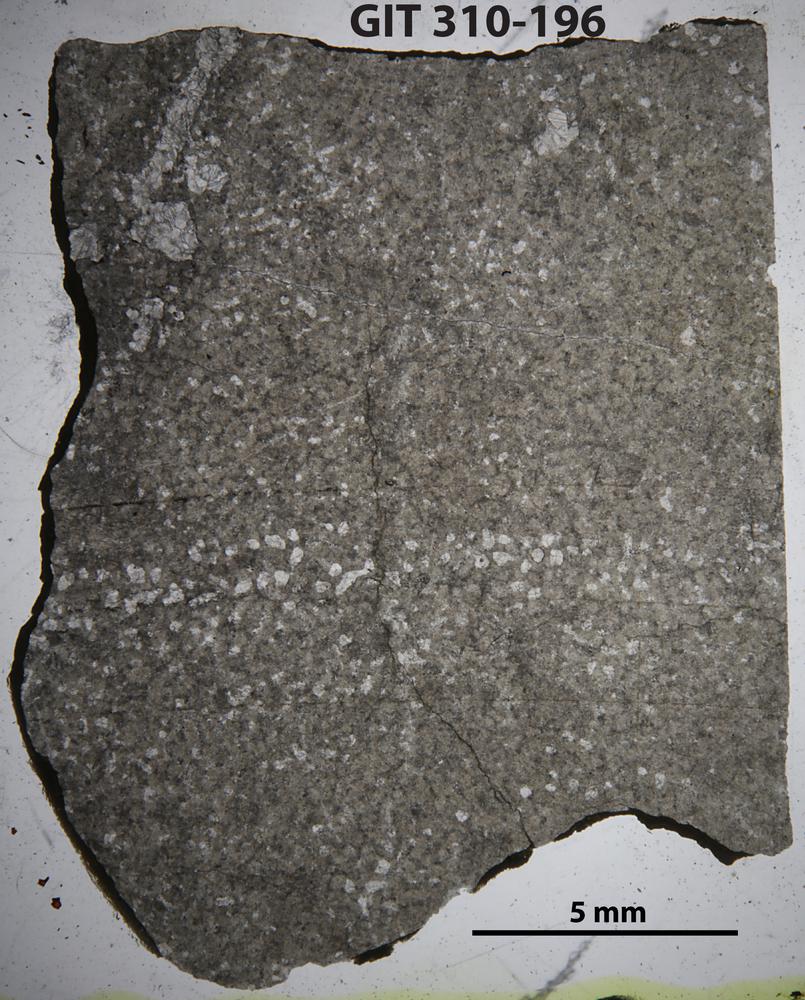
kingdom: Animalia
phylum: Porifera
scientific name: Porifera
